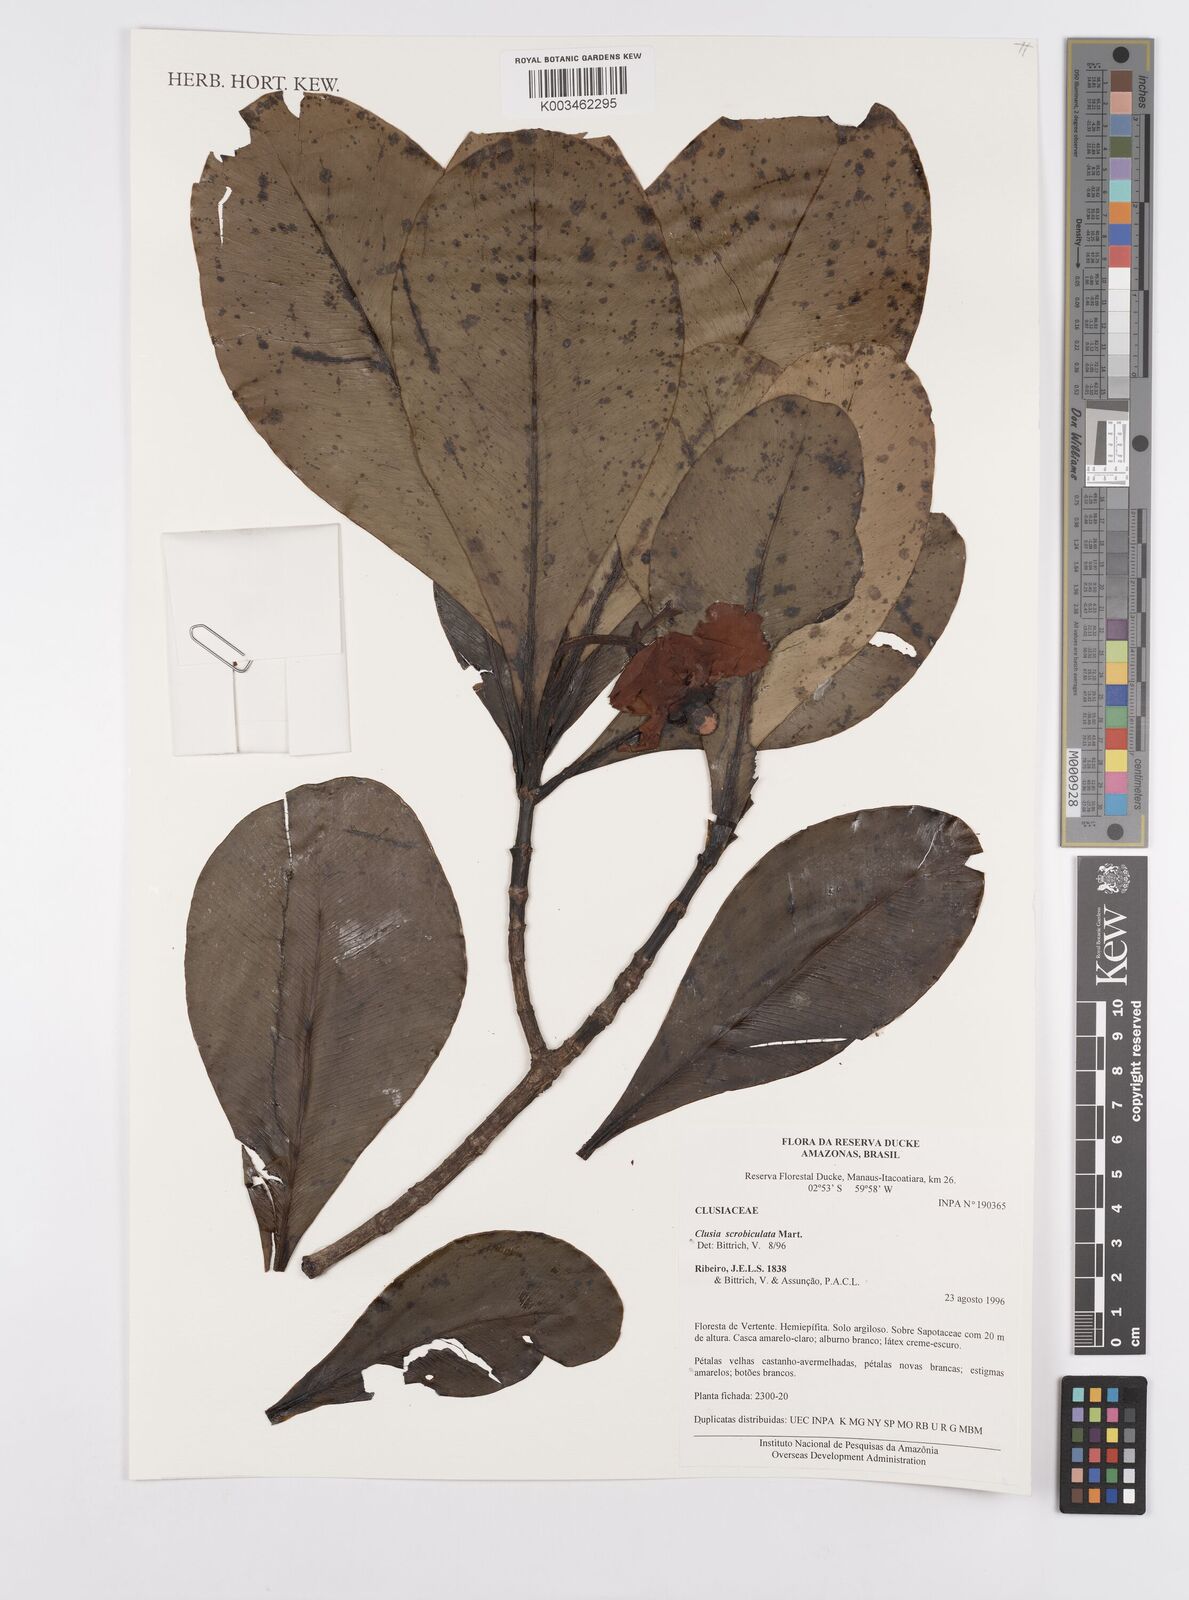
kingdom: Plantae
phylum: Tracheophyta
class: Magnoliopsida
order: Malpighiales
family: Clusiaceae
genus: Clusia
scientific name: Clusia scrobiculata
